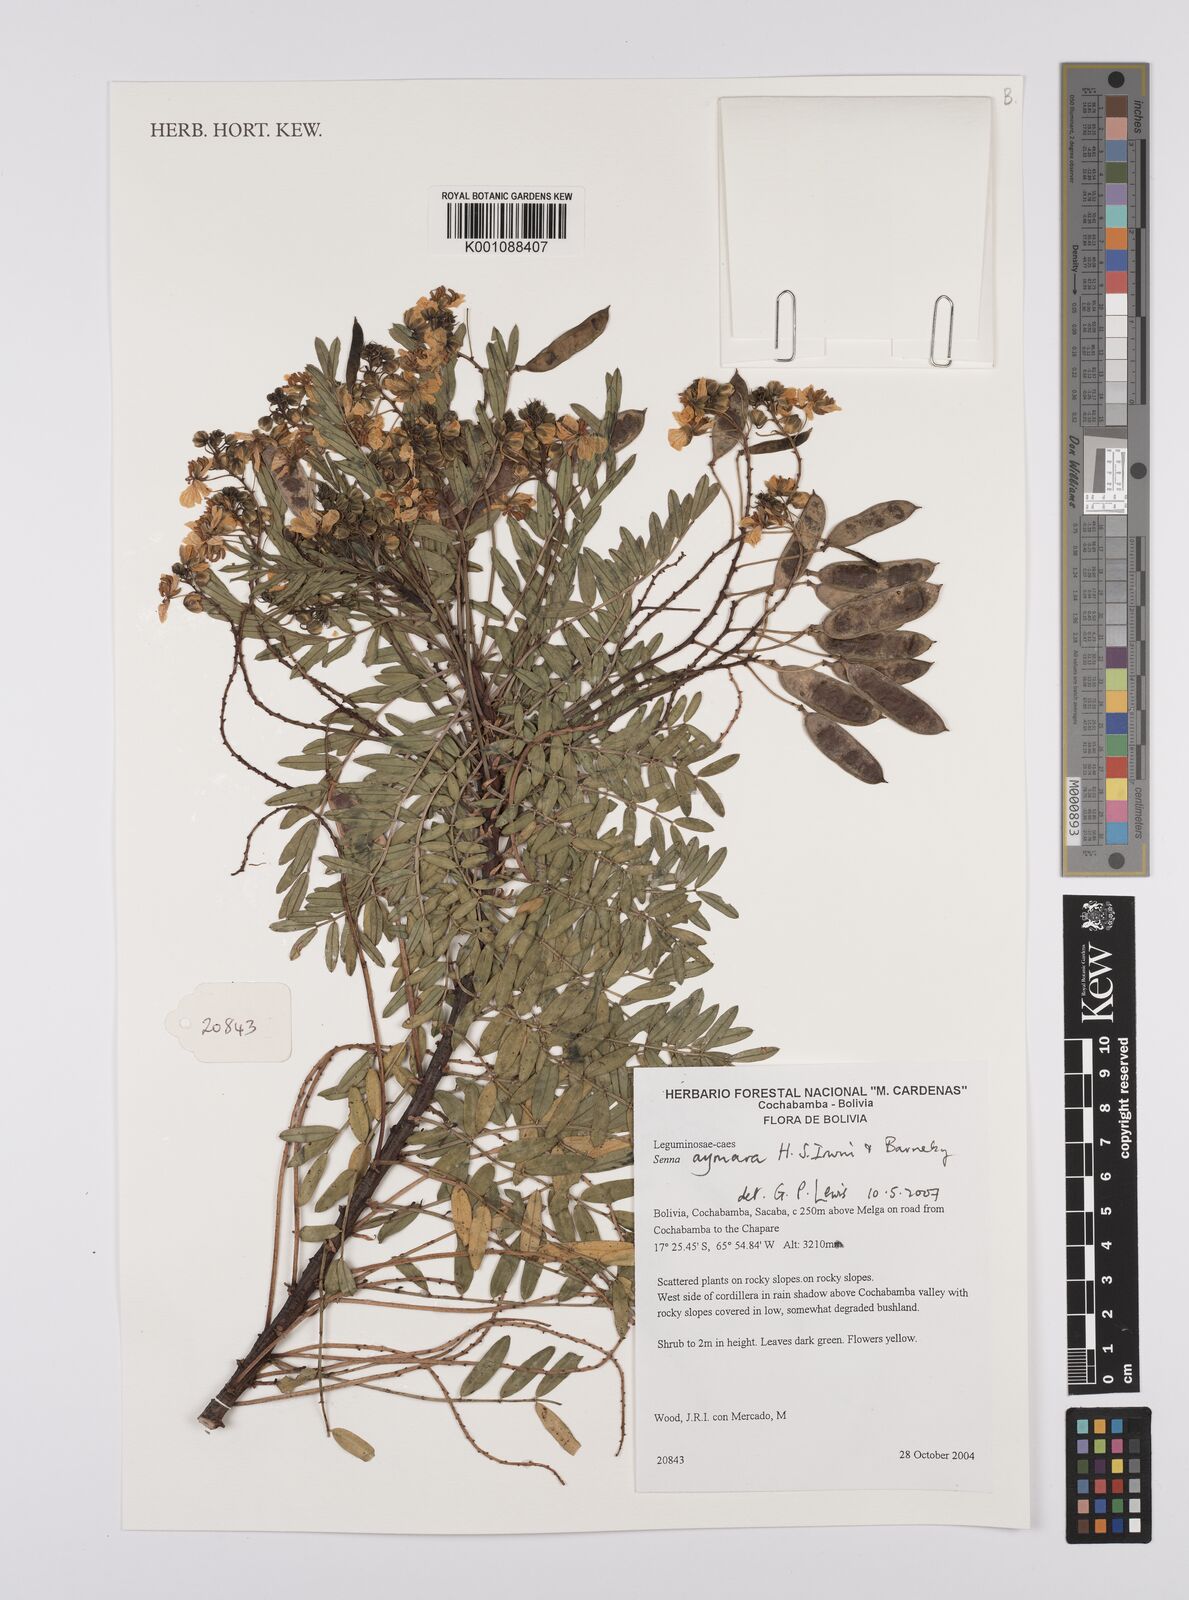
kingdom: Plantae
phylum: Tracheophyta
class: Magnoliopsida
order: Fabales
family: Fabaceae
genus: Senna
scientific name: Senna aymara
